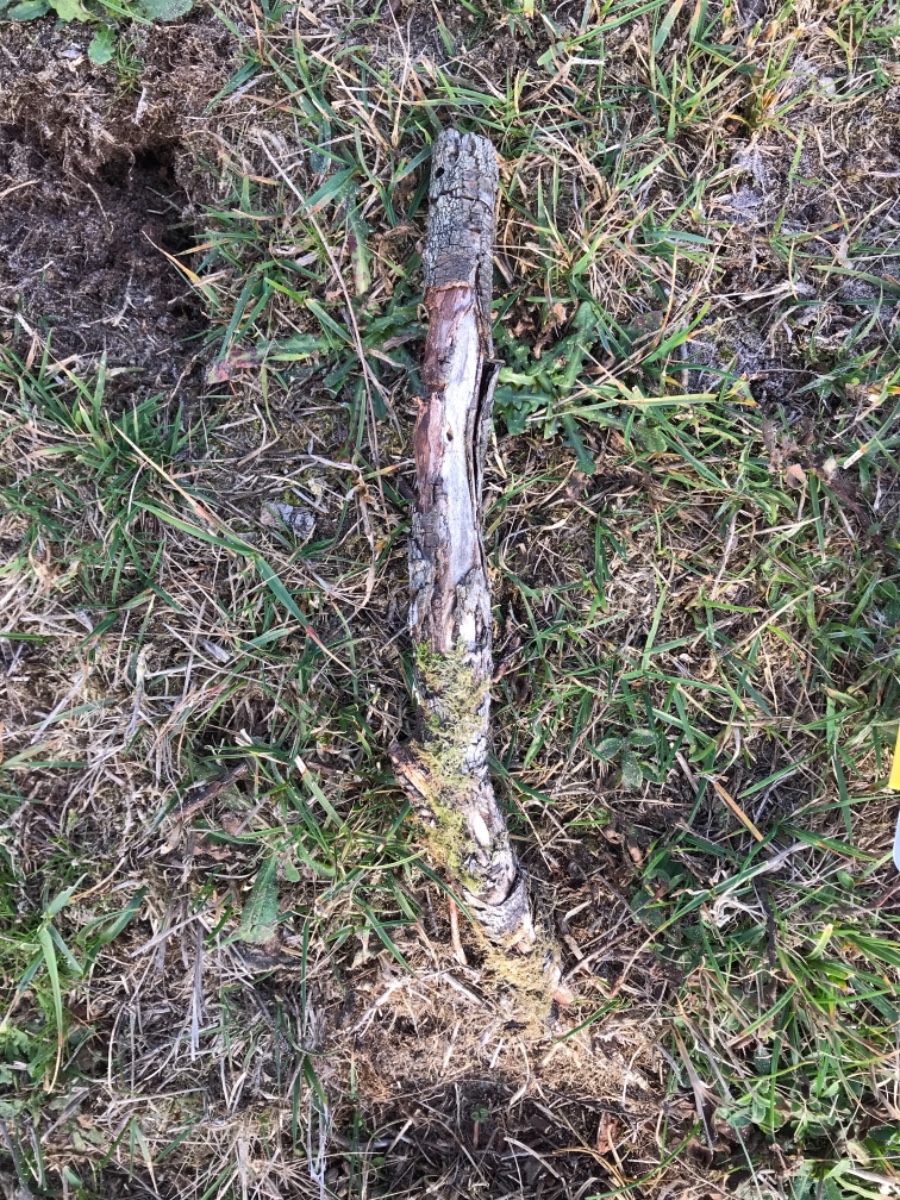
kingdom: Fungi
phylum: Basidiomycota
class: Agaricomycetes
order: Agaricales
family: Physalacriaceae
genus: Armillaria
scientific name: Armillaria ostoyae
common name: mørk honningsvamp
